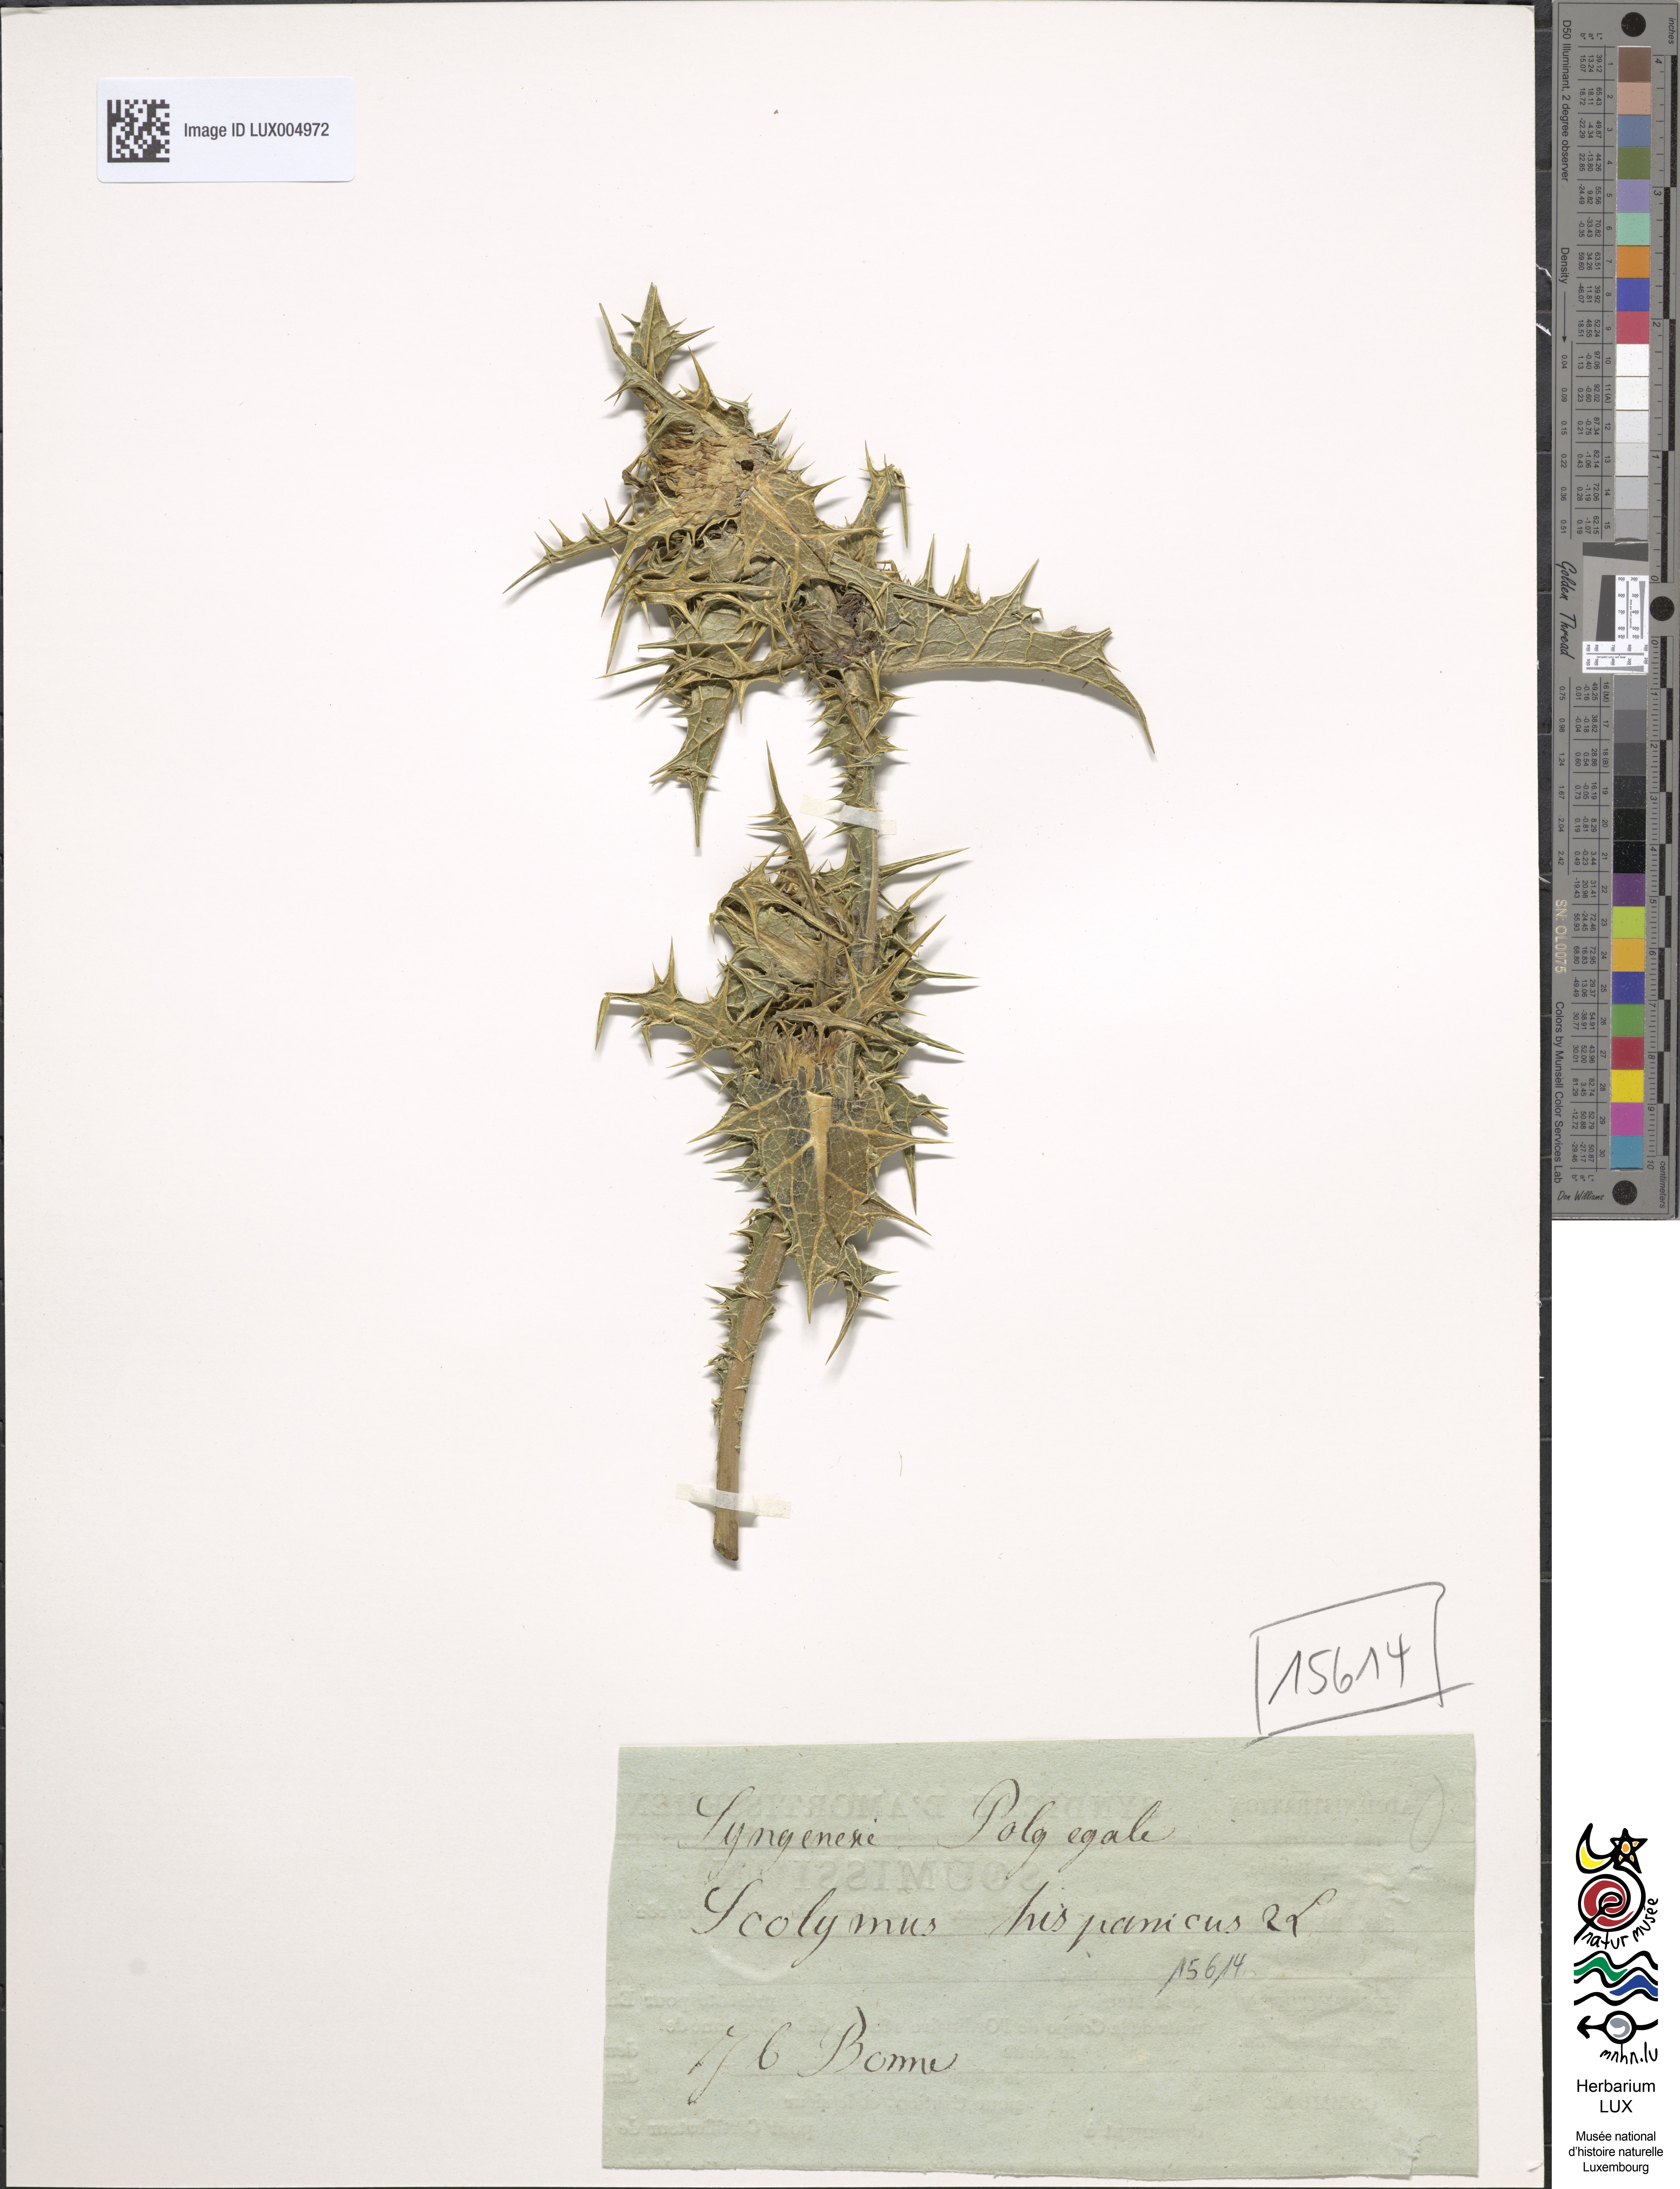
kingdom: Plantae
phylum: Tracheophyta
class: Magnoliopsida
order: Asterales
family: Asteraceae
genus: Scolymus
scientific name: Scolymus hispanicus
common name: Golden thistle
